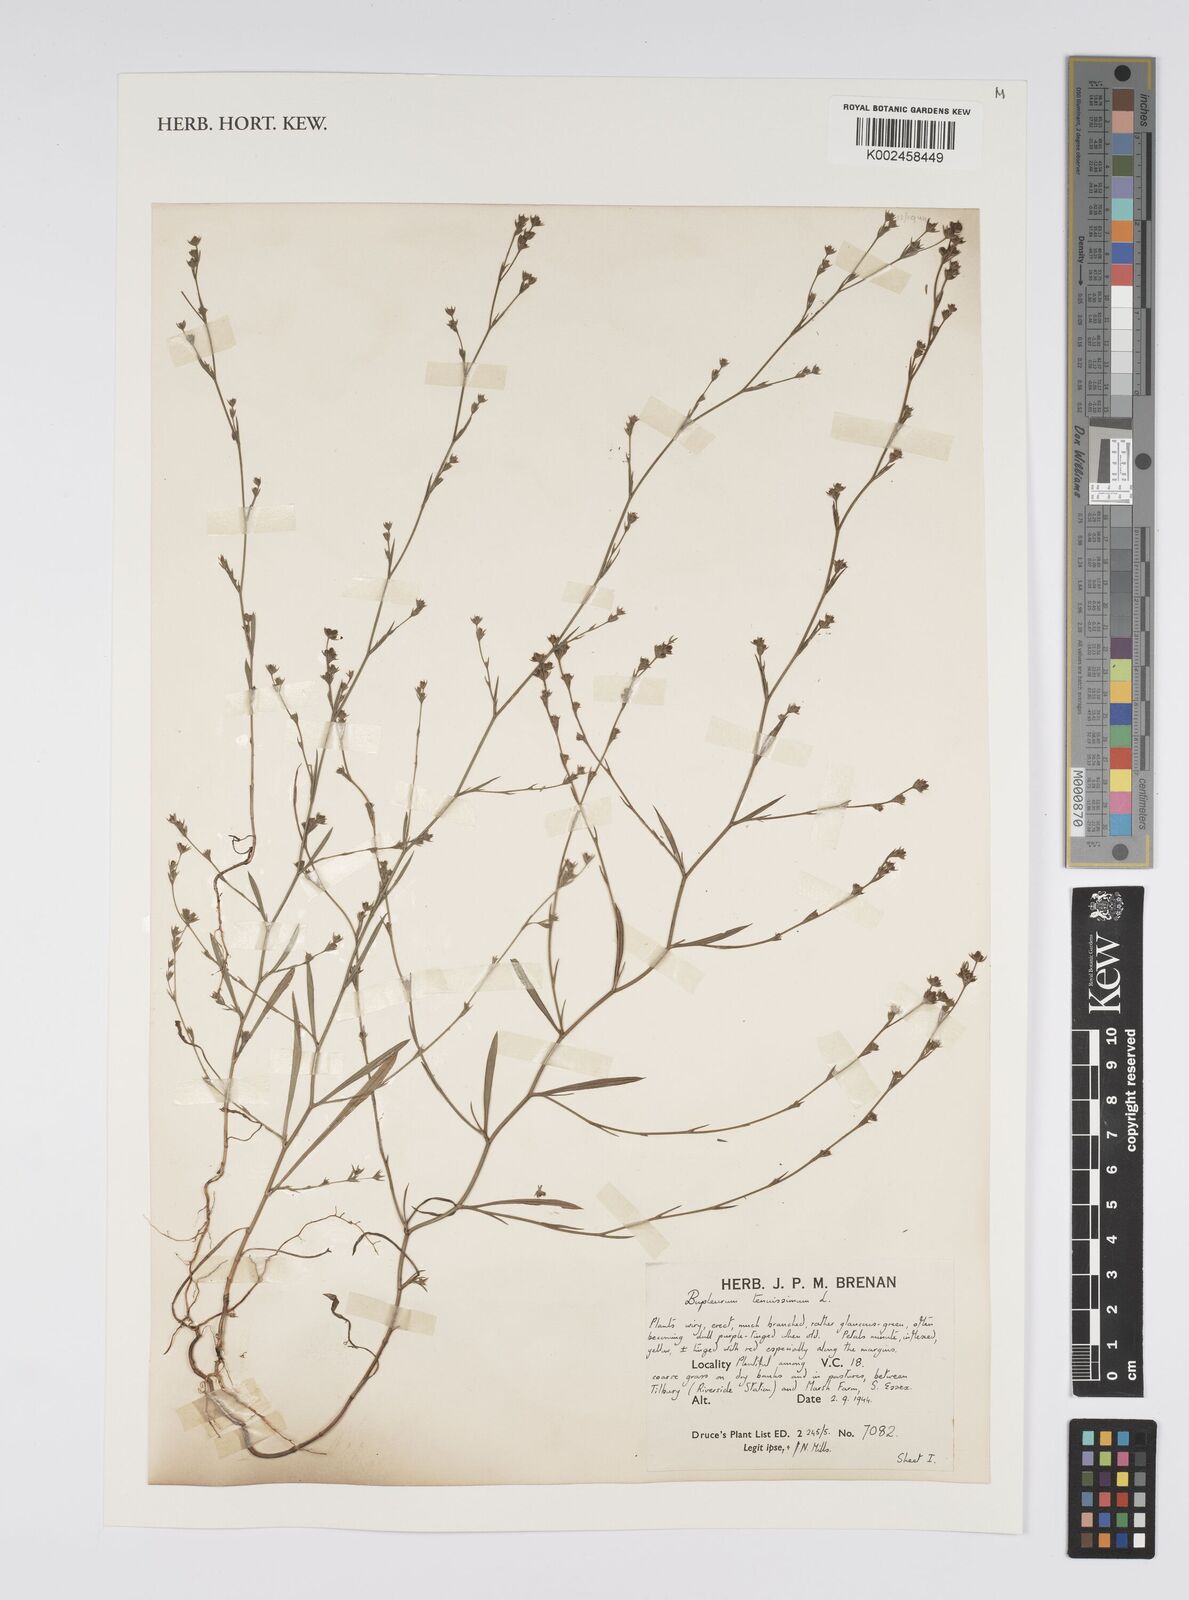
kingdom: Plantae
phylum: Tracheophyta
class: Magnoliopsida
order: Apiales
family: Apiaceae
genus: Bupleurum
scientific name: Bupleurum tenuissimum
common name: Slender hare's-ear
